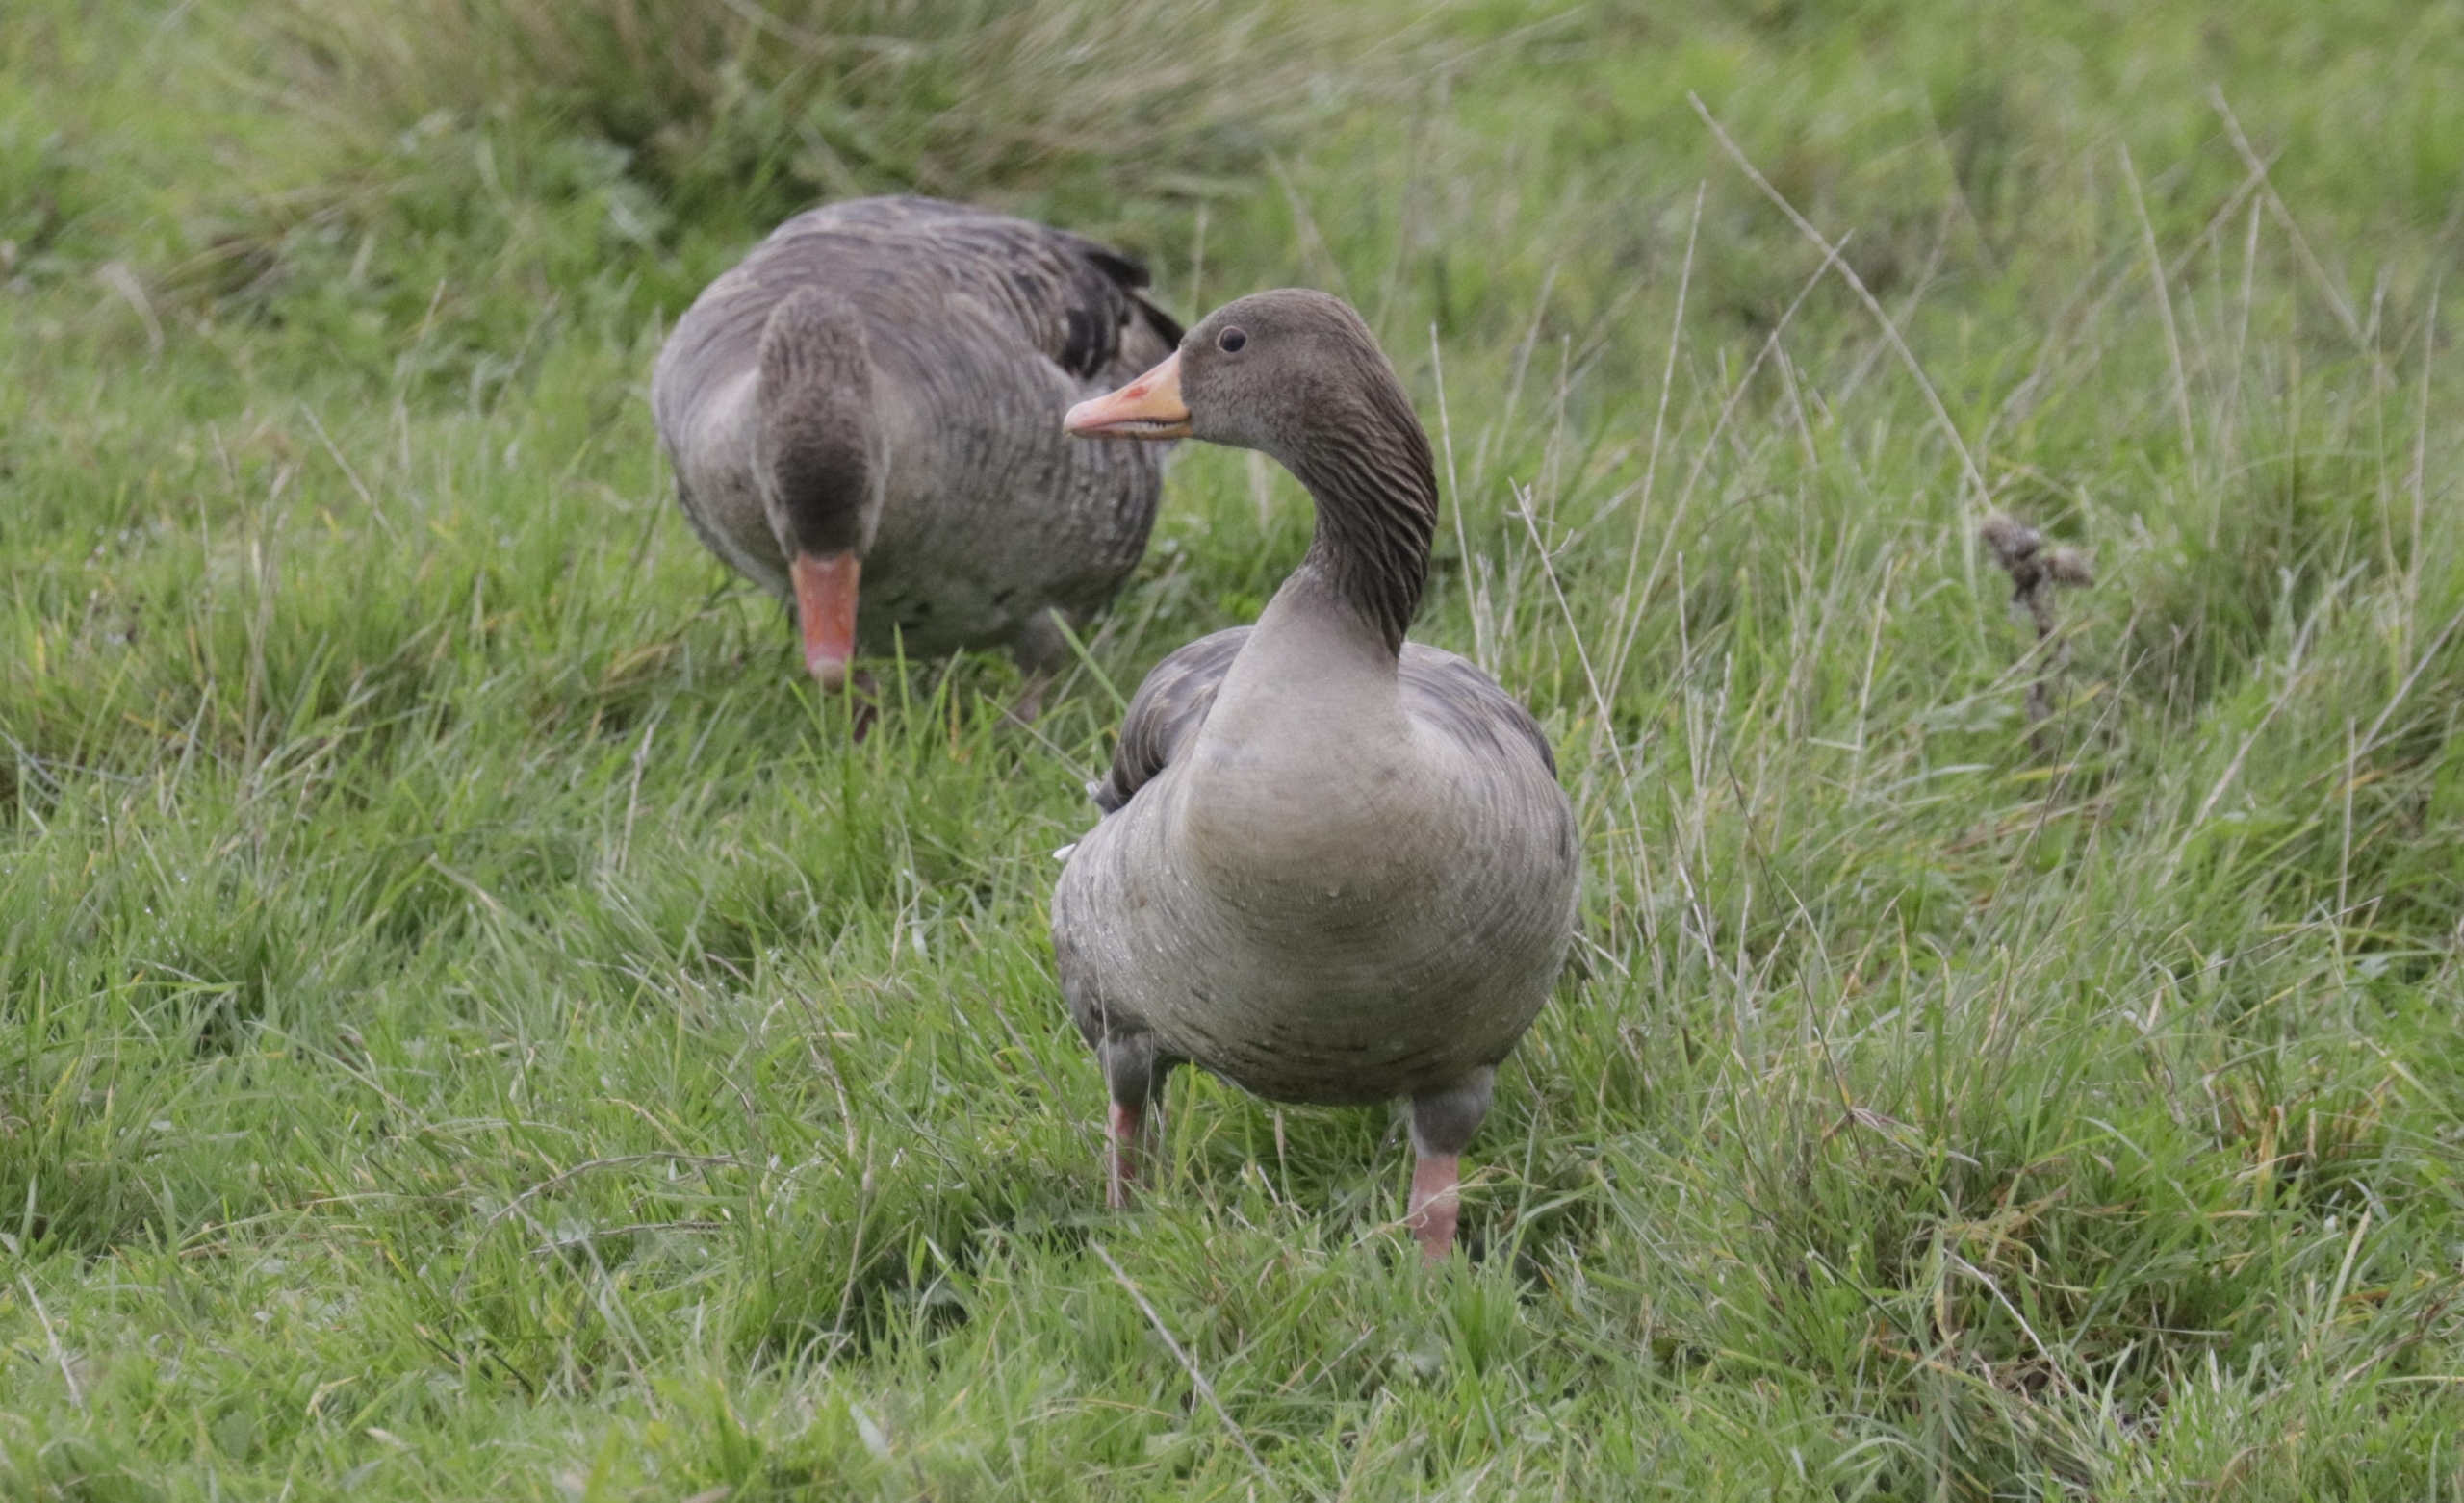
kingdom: Animalia
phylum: Chordata
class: Aves
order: Anseriformes
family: Anatidae
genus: Anser
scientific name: Anser anser
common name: Grågås
